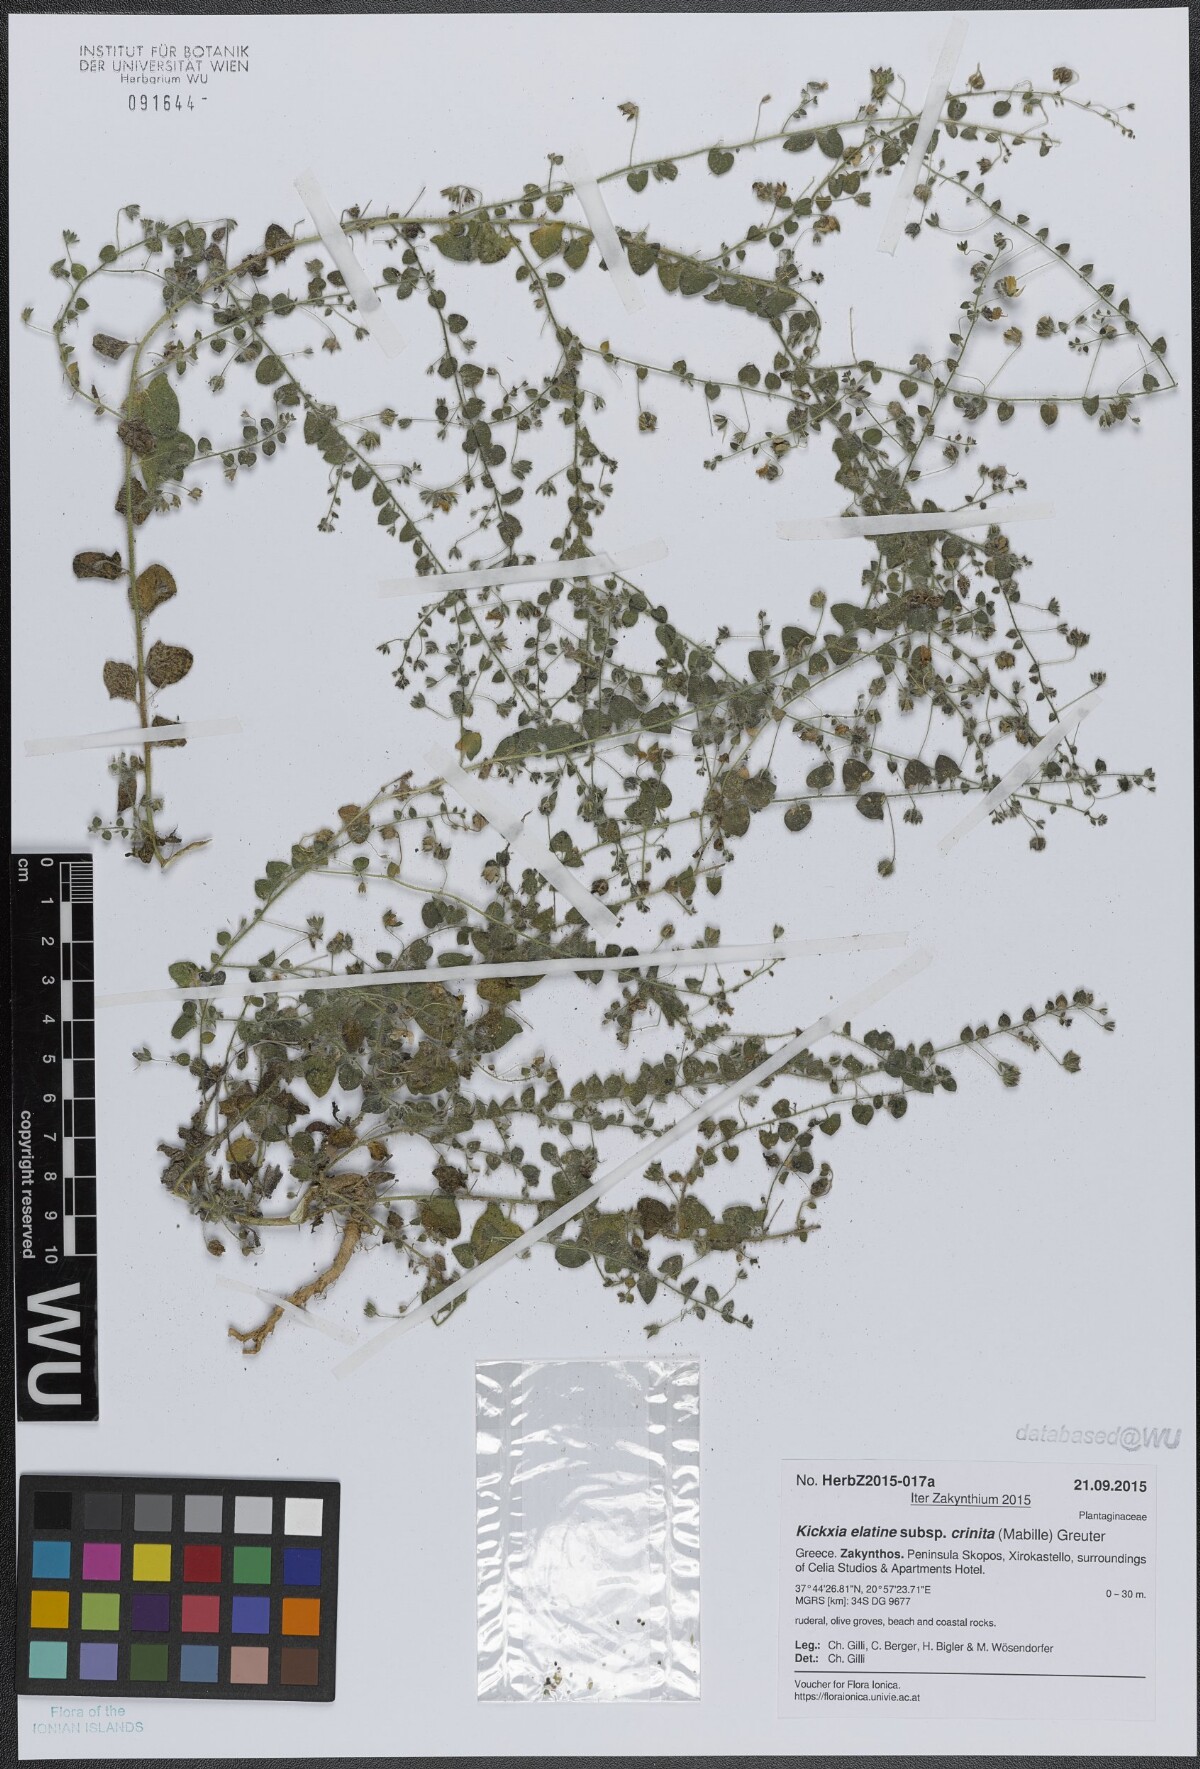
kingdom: Plantae
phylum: Tracheophyta
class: Magnoliopsida
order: Lamiales
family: Plantaginaceae
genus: Kickxia
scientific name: Kickxia elatine
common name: Sharp-leaved fluellen
